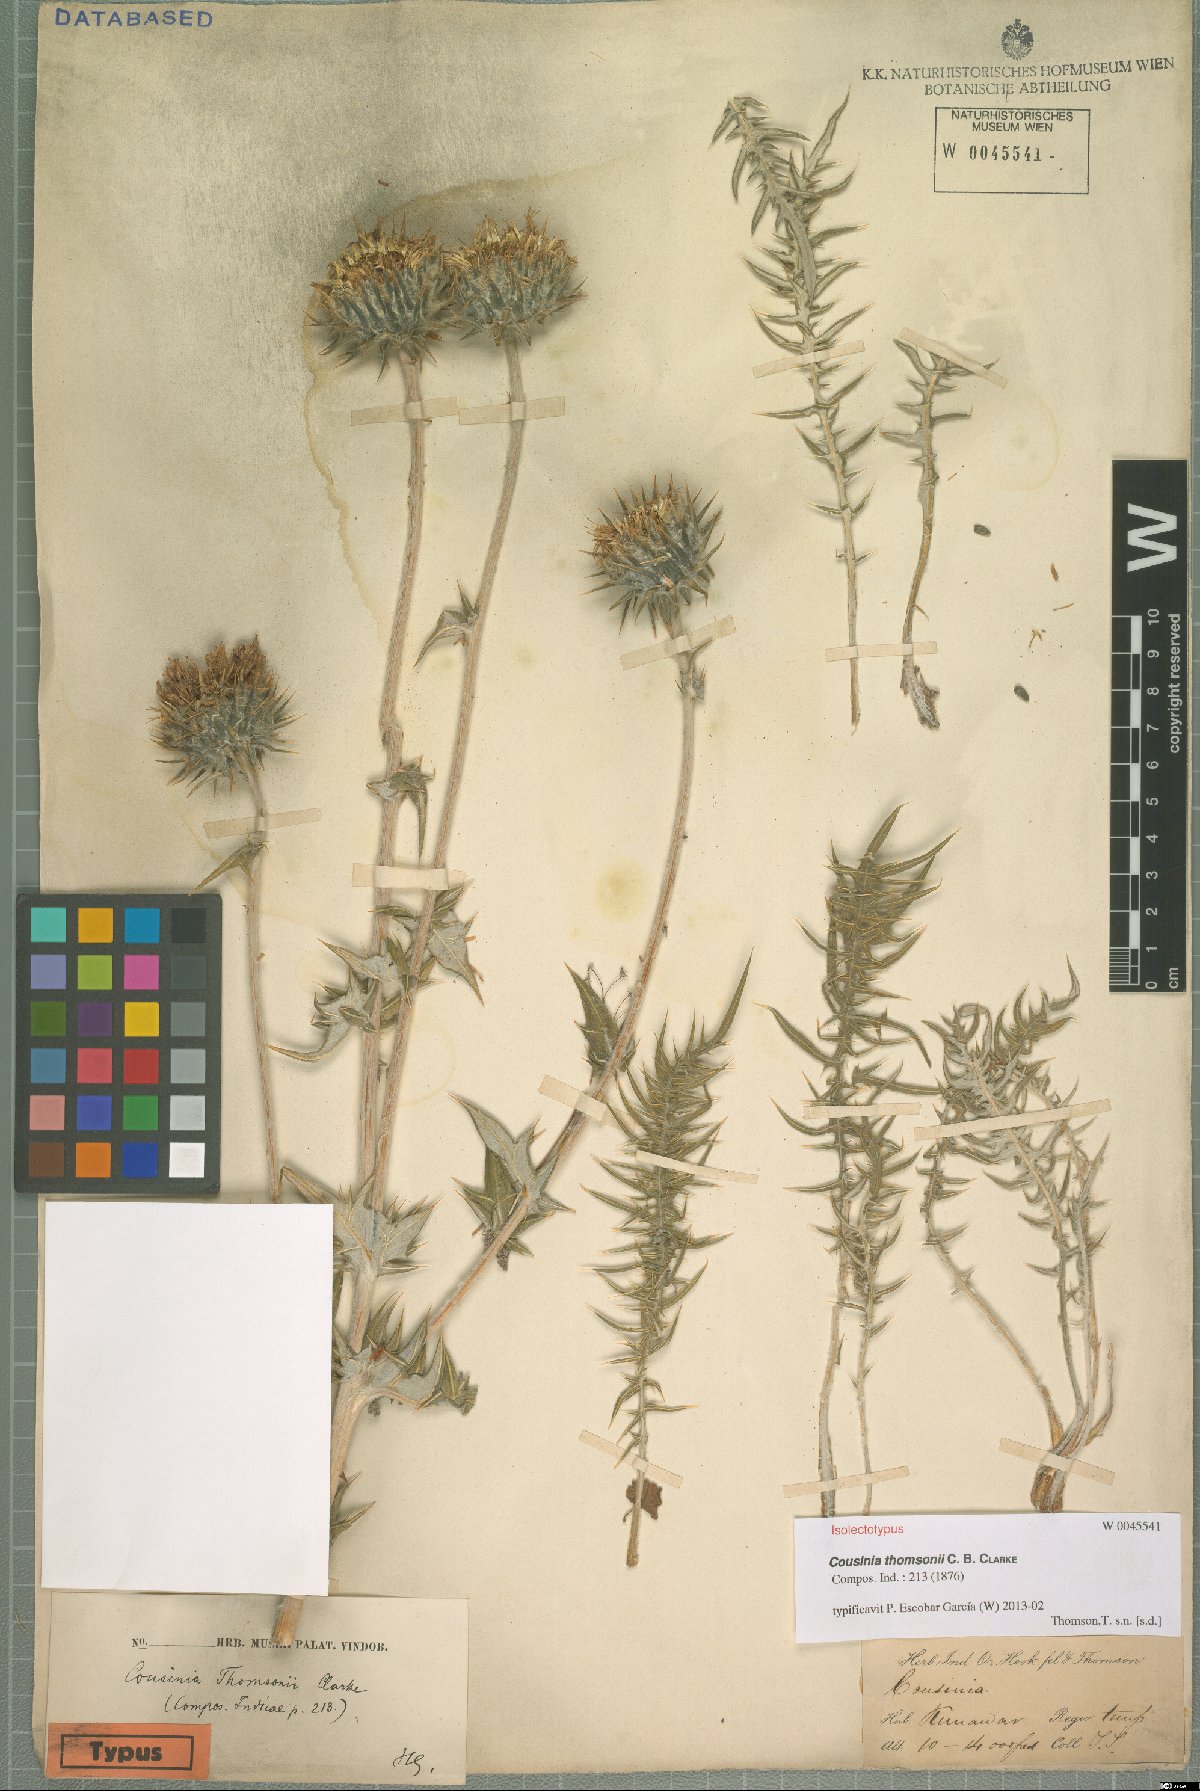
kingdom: Plantae
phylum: Tracheophyta
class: Magnoliopsida
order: Asterales
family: Asteraceae
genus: Cousinia
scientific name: Cousinia thomsonii
